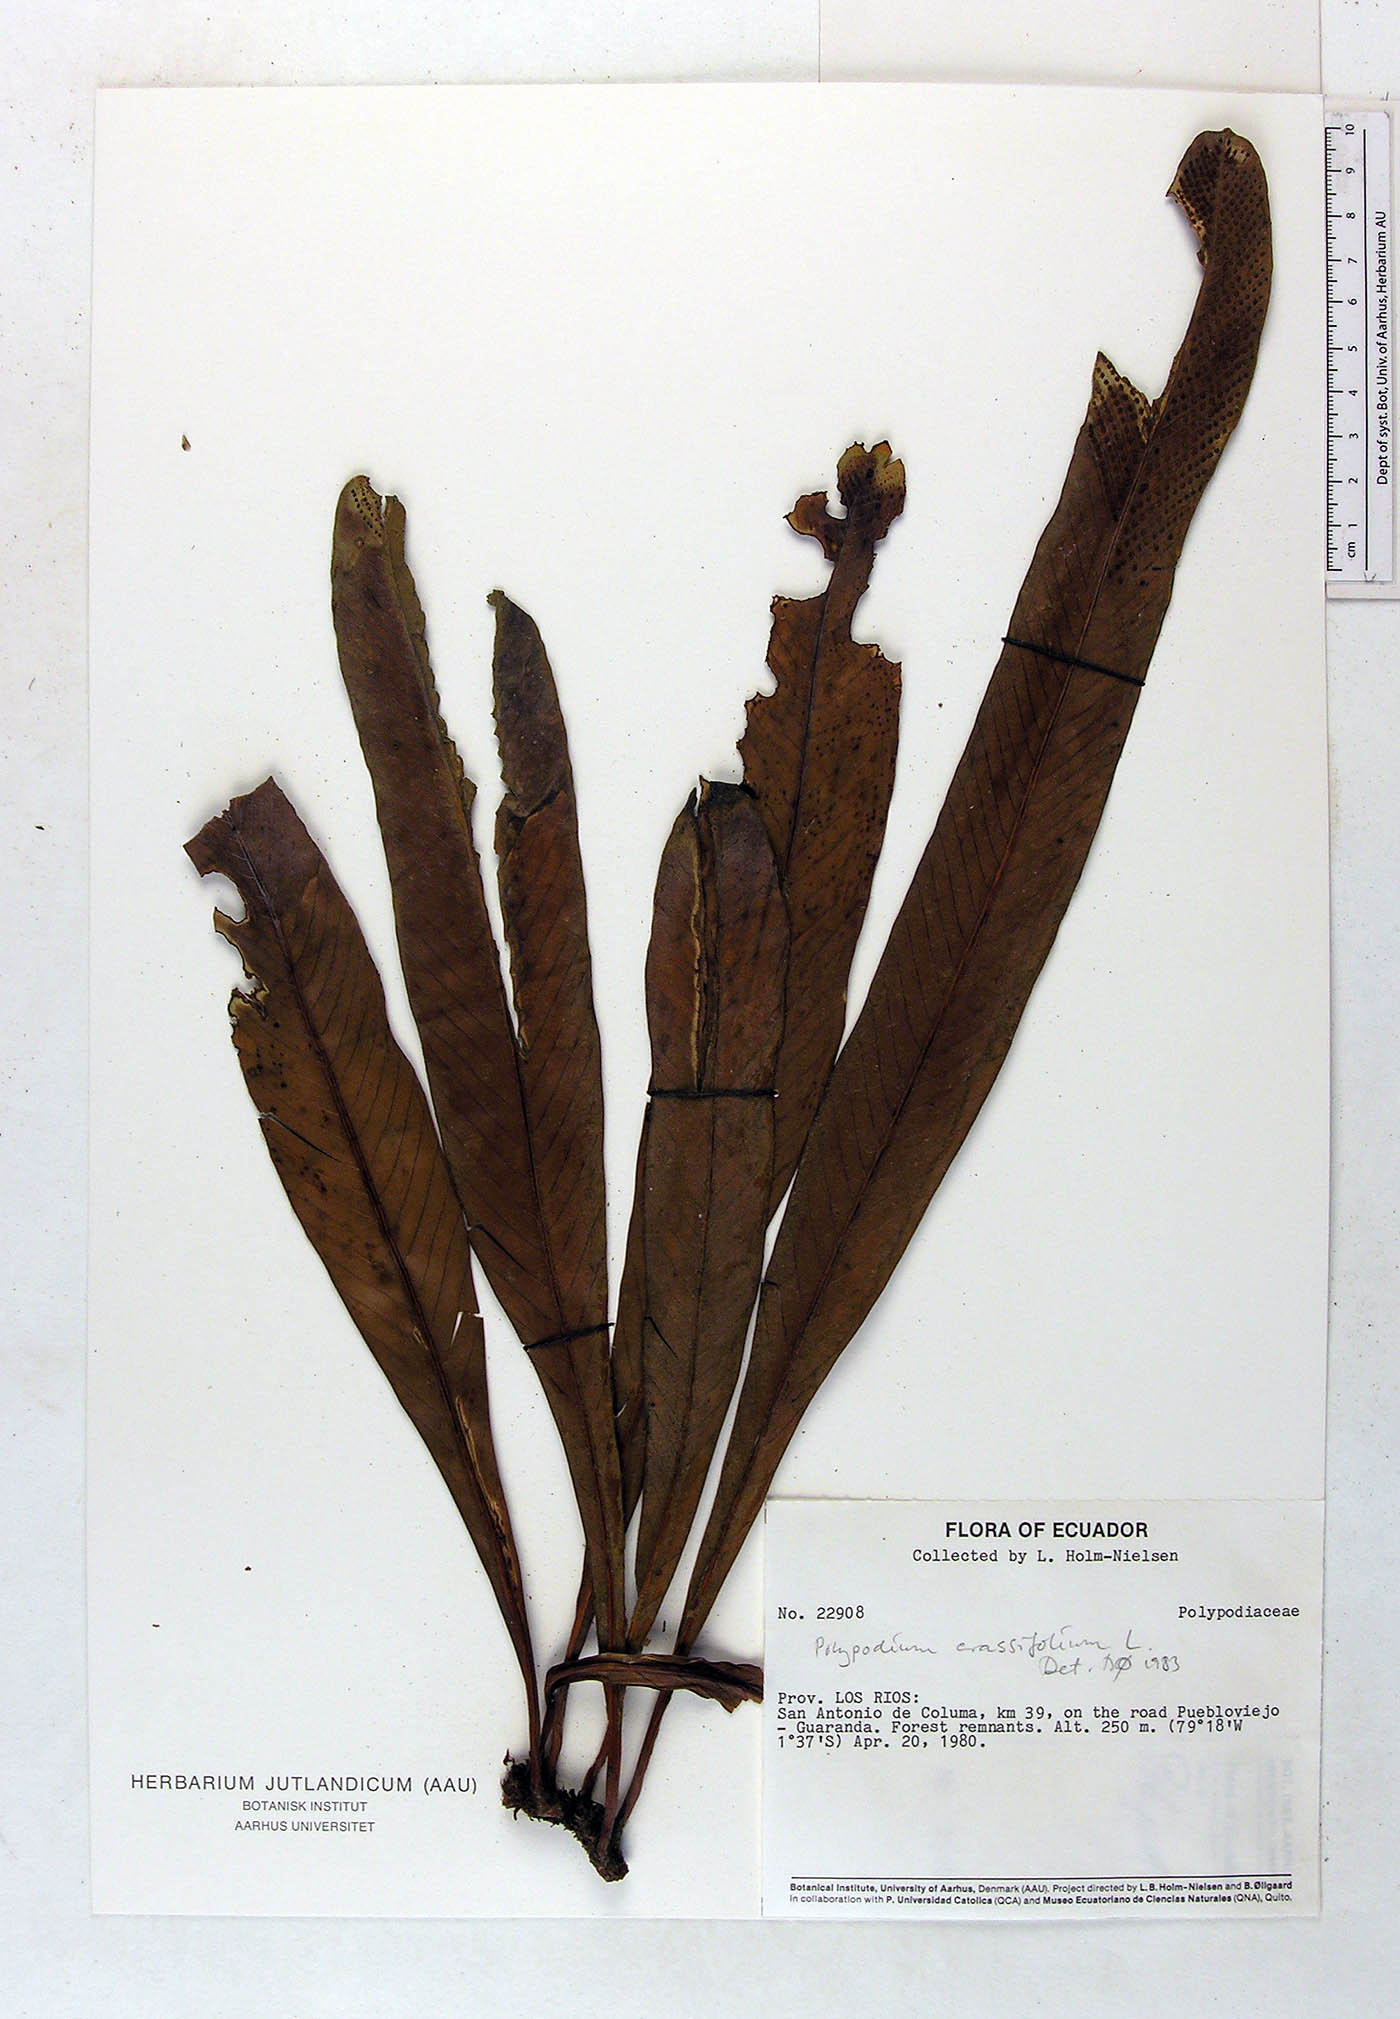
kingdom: Plantae
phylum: Tracheophyta
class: Polypodiopsida
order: Polypodiales
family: Polypodiaceae
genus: Niphidium
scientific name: Niphidium crassifolium
